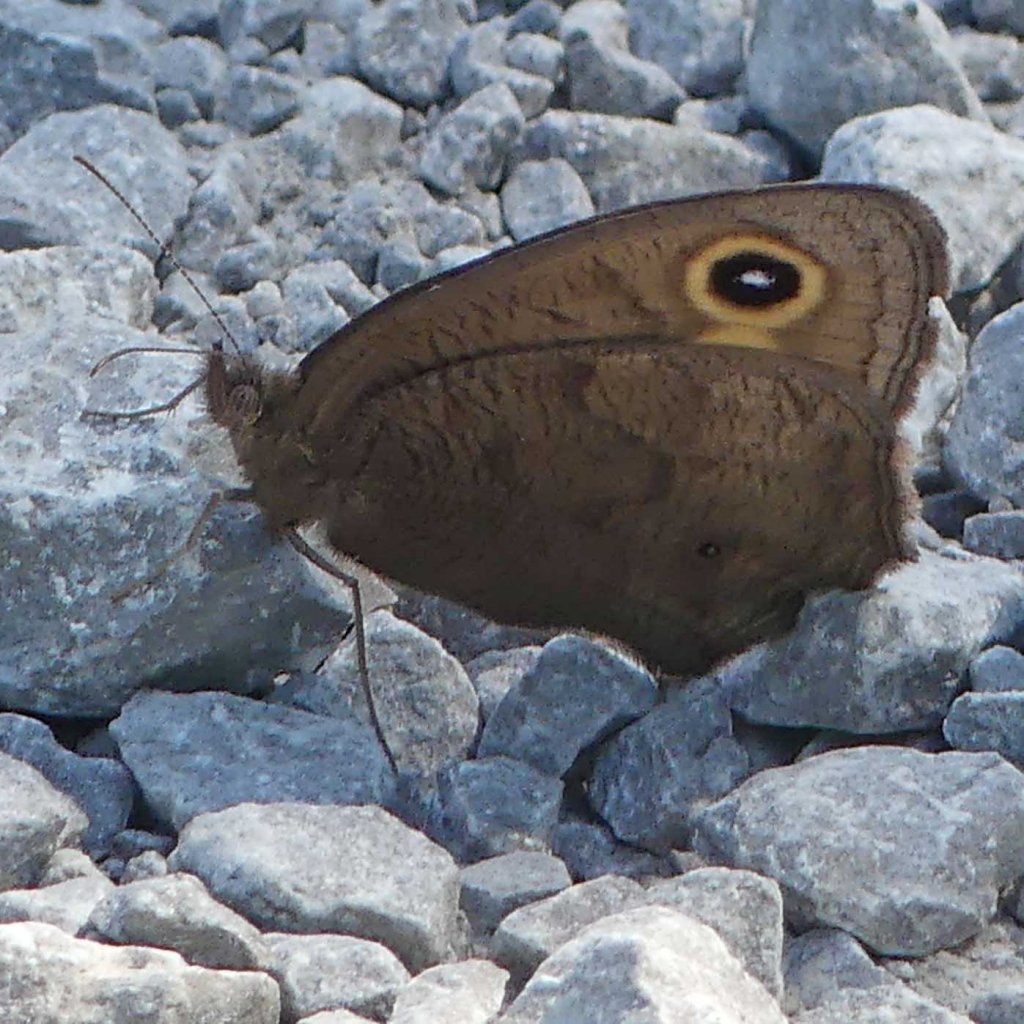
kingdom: Animalia
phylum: Arthropoda
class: Insecta
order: Lepidoptera
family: Nymphalidae
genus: Cercyonis
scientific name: Cercyonis pegala
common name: Common Wood-Nymph
